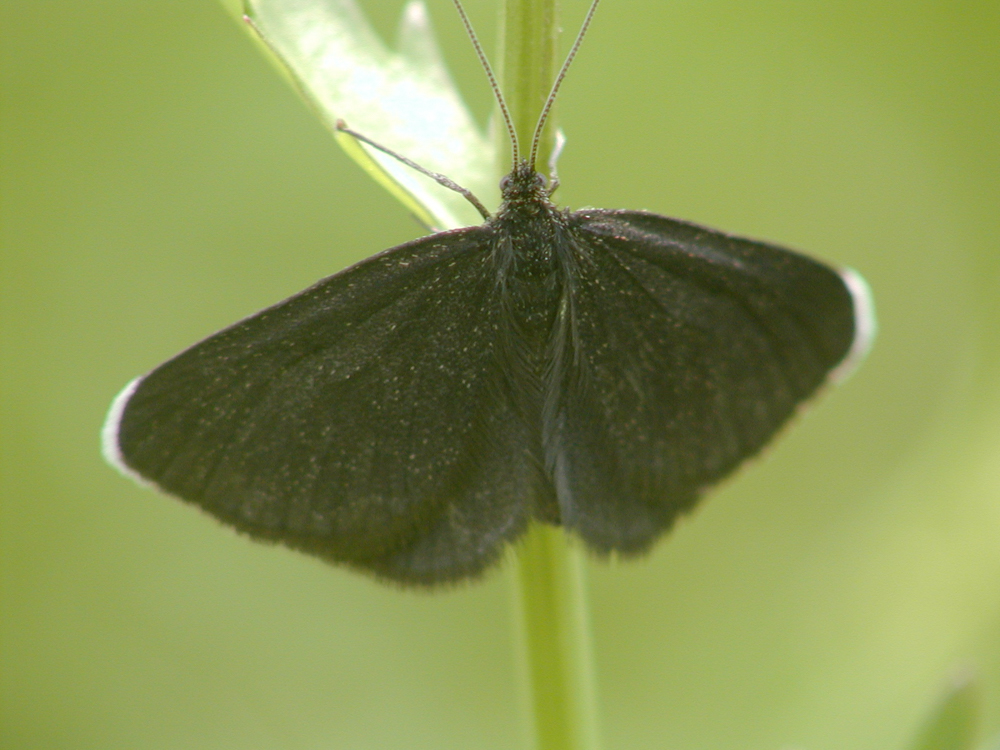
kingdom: Animalia
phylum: Arthropoda
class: Insecta
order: Lepidoptera
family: Geometridae
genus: Odezia
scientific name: Odezia atrata
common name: Chimney sweeper
